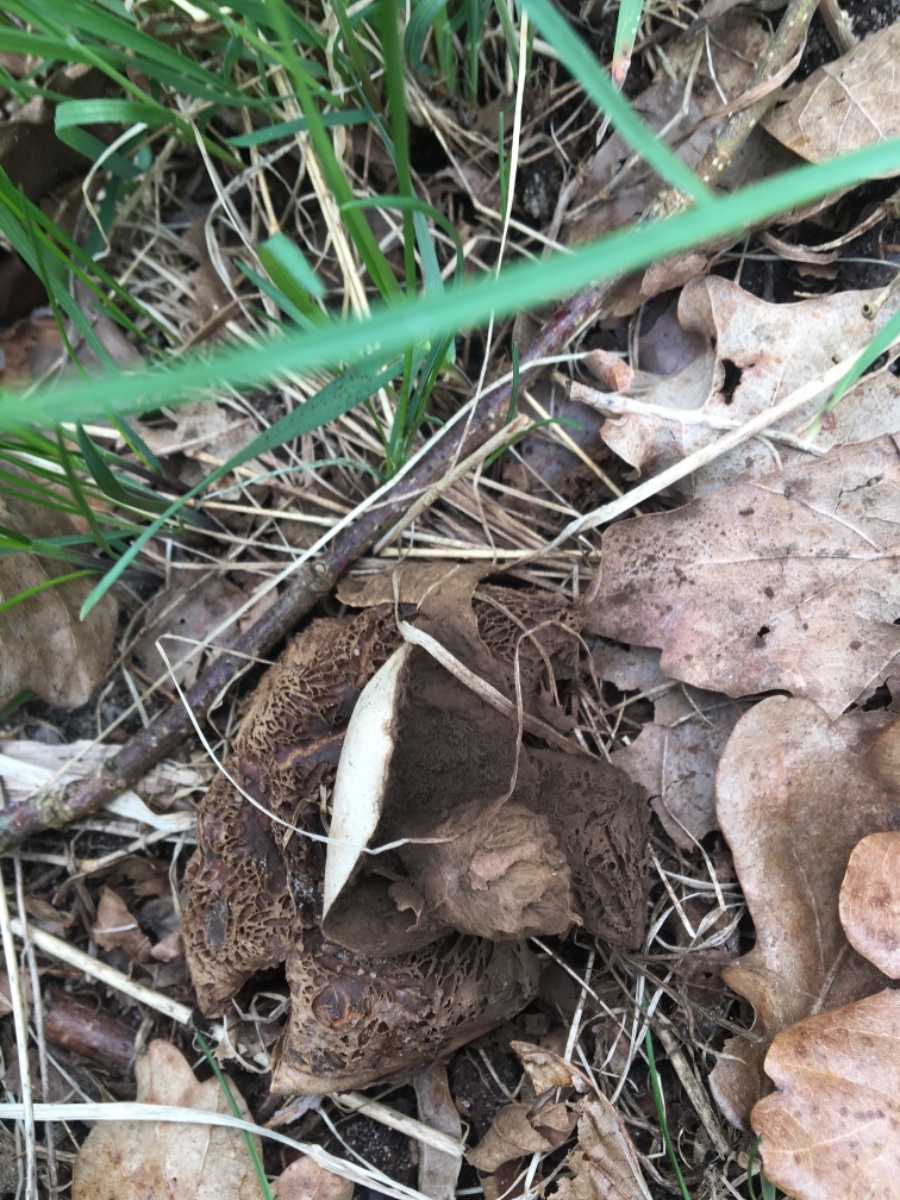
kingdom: Fungi
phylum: Basidiomycota
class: Agaricomycetes
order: Geastrales
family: Geastraceae
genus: Geastrum
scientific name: Geastrum michelianum
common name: kødet stjernebold
